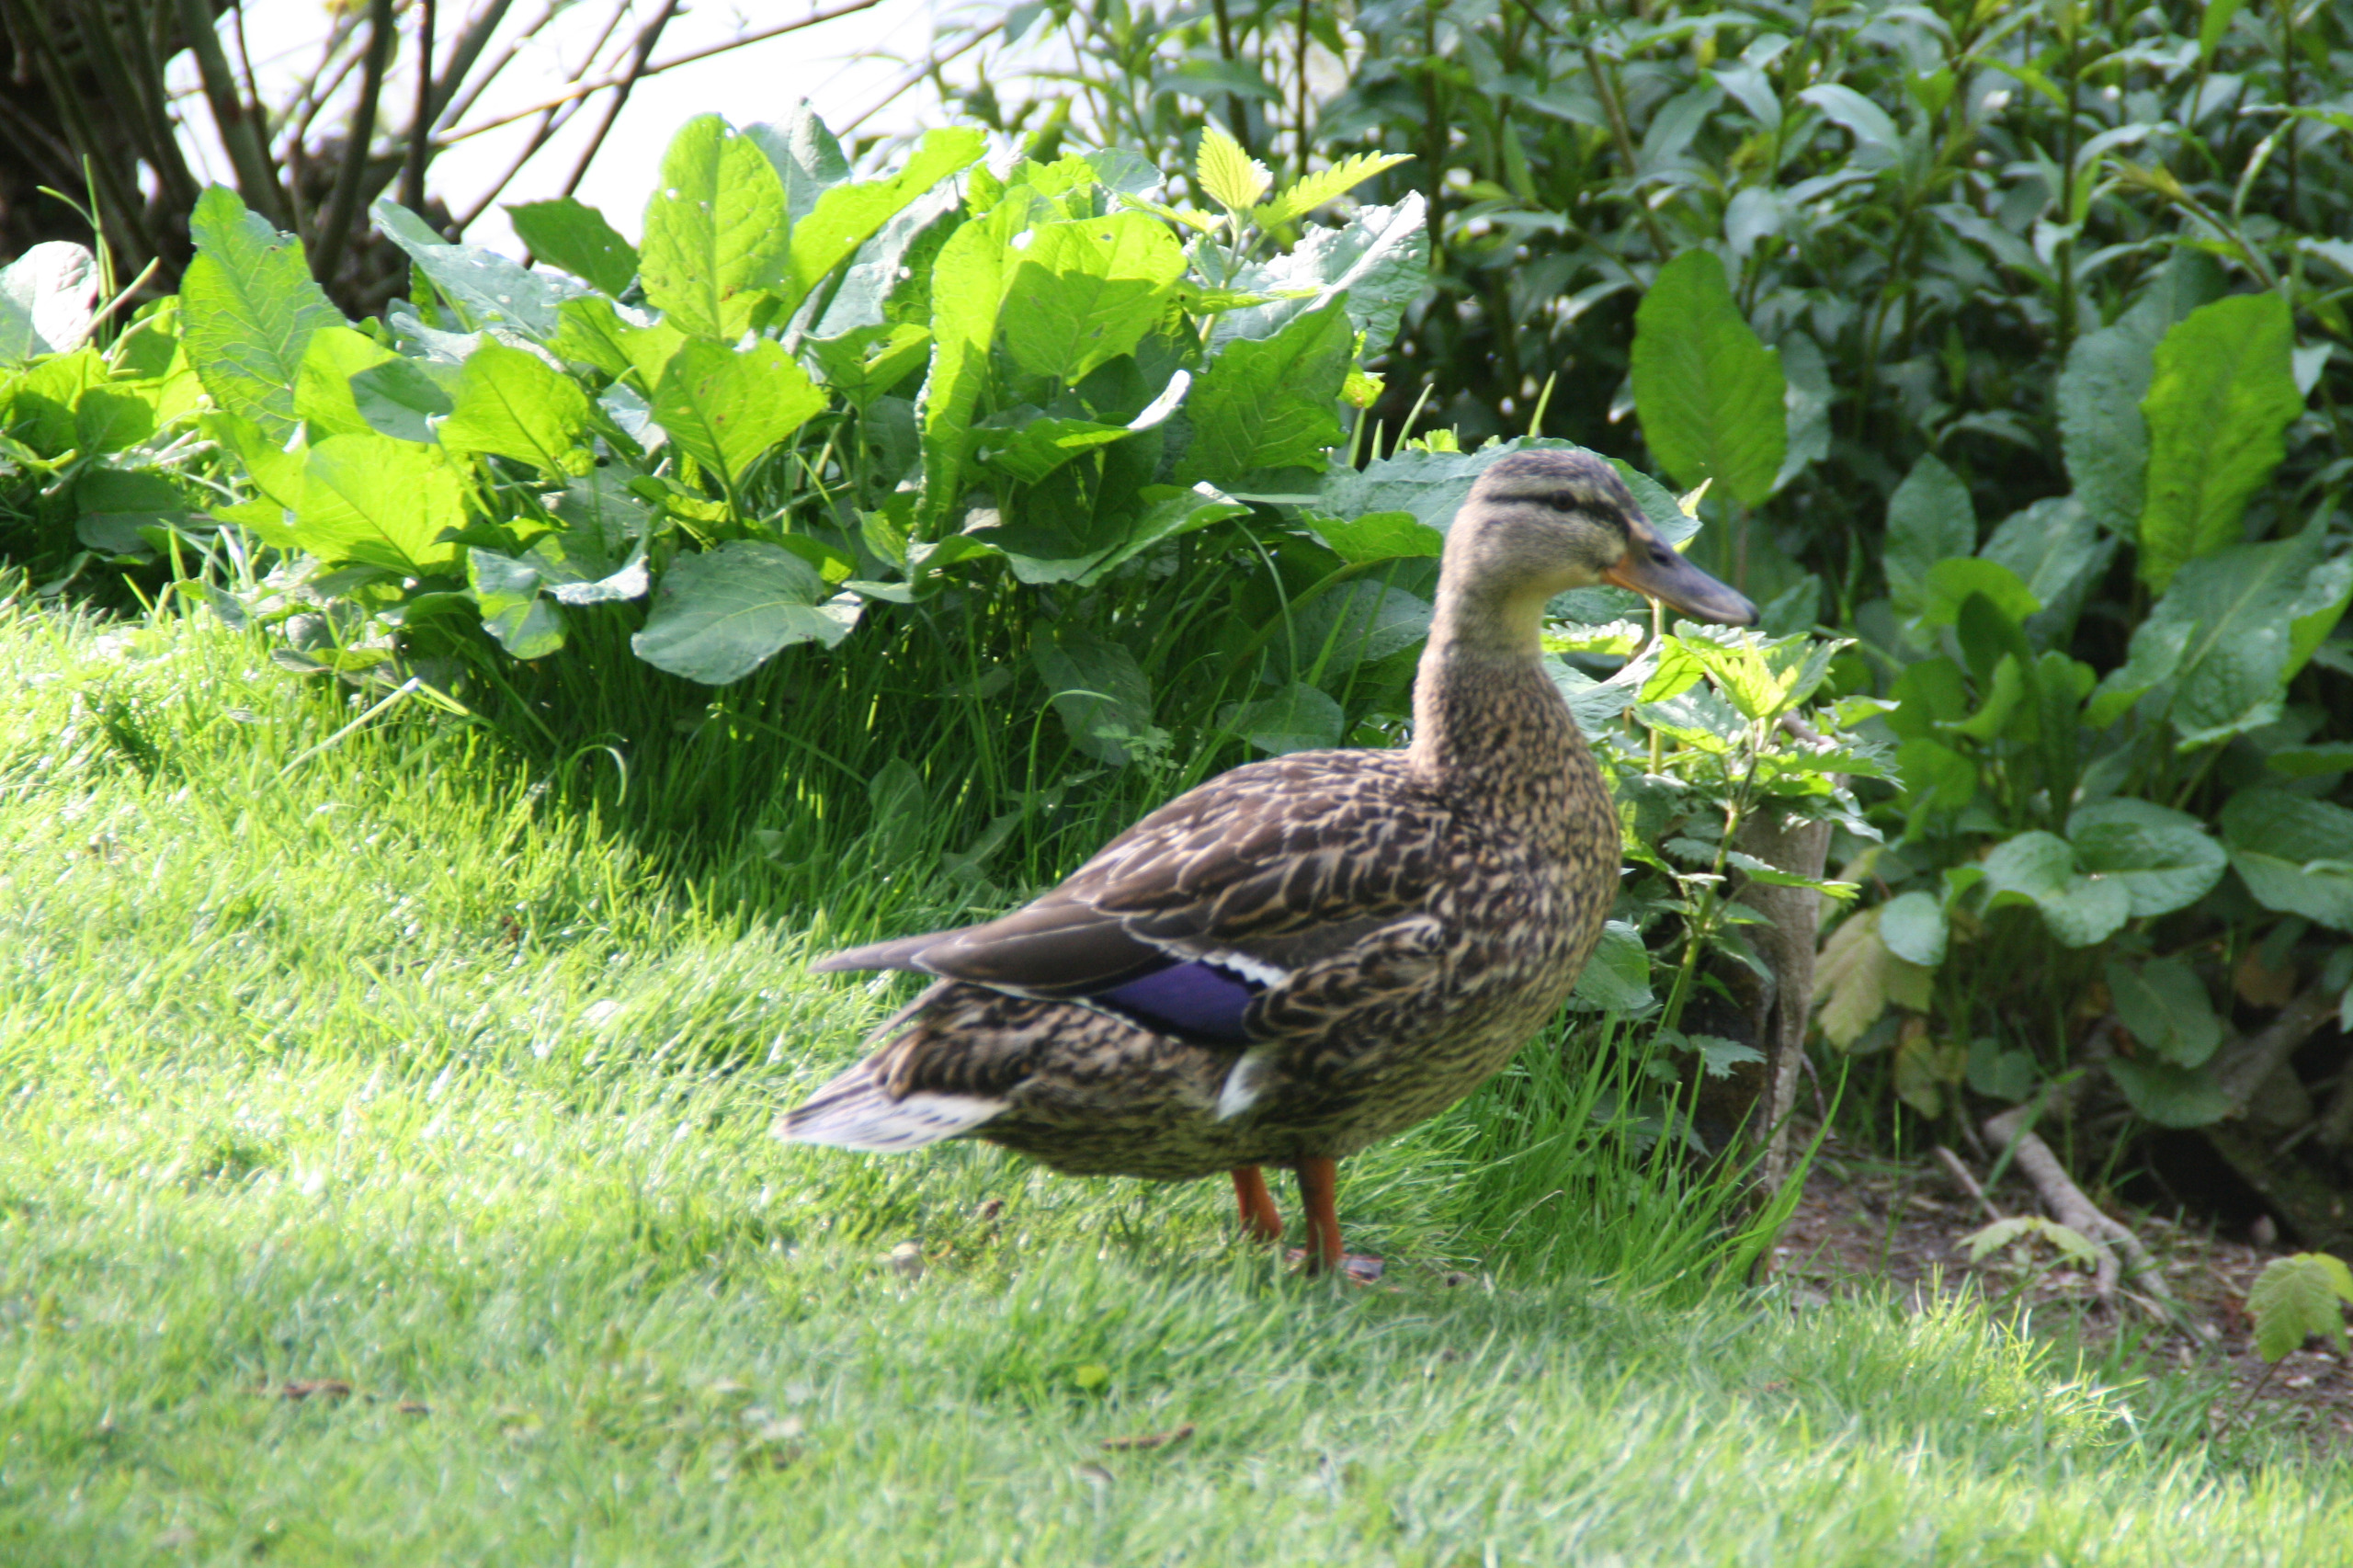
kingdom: Animalia
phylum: Chordata
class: Aves
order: Anseriformes
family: Anatidae
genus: Anas
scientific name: Anas platyrhynchos
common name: Gråand
